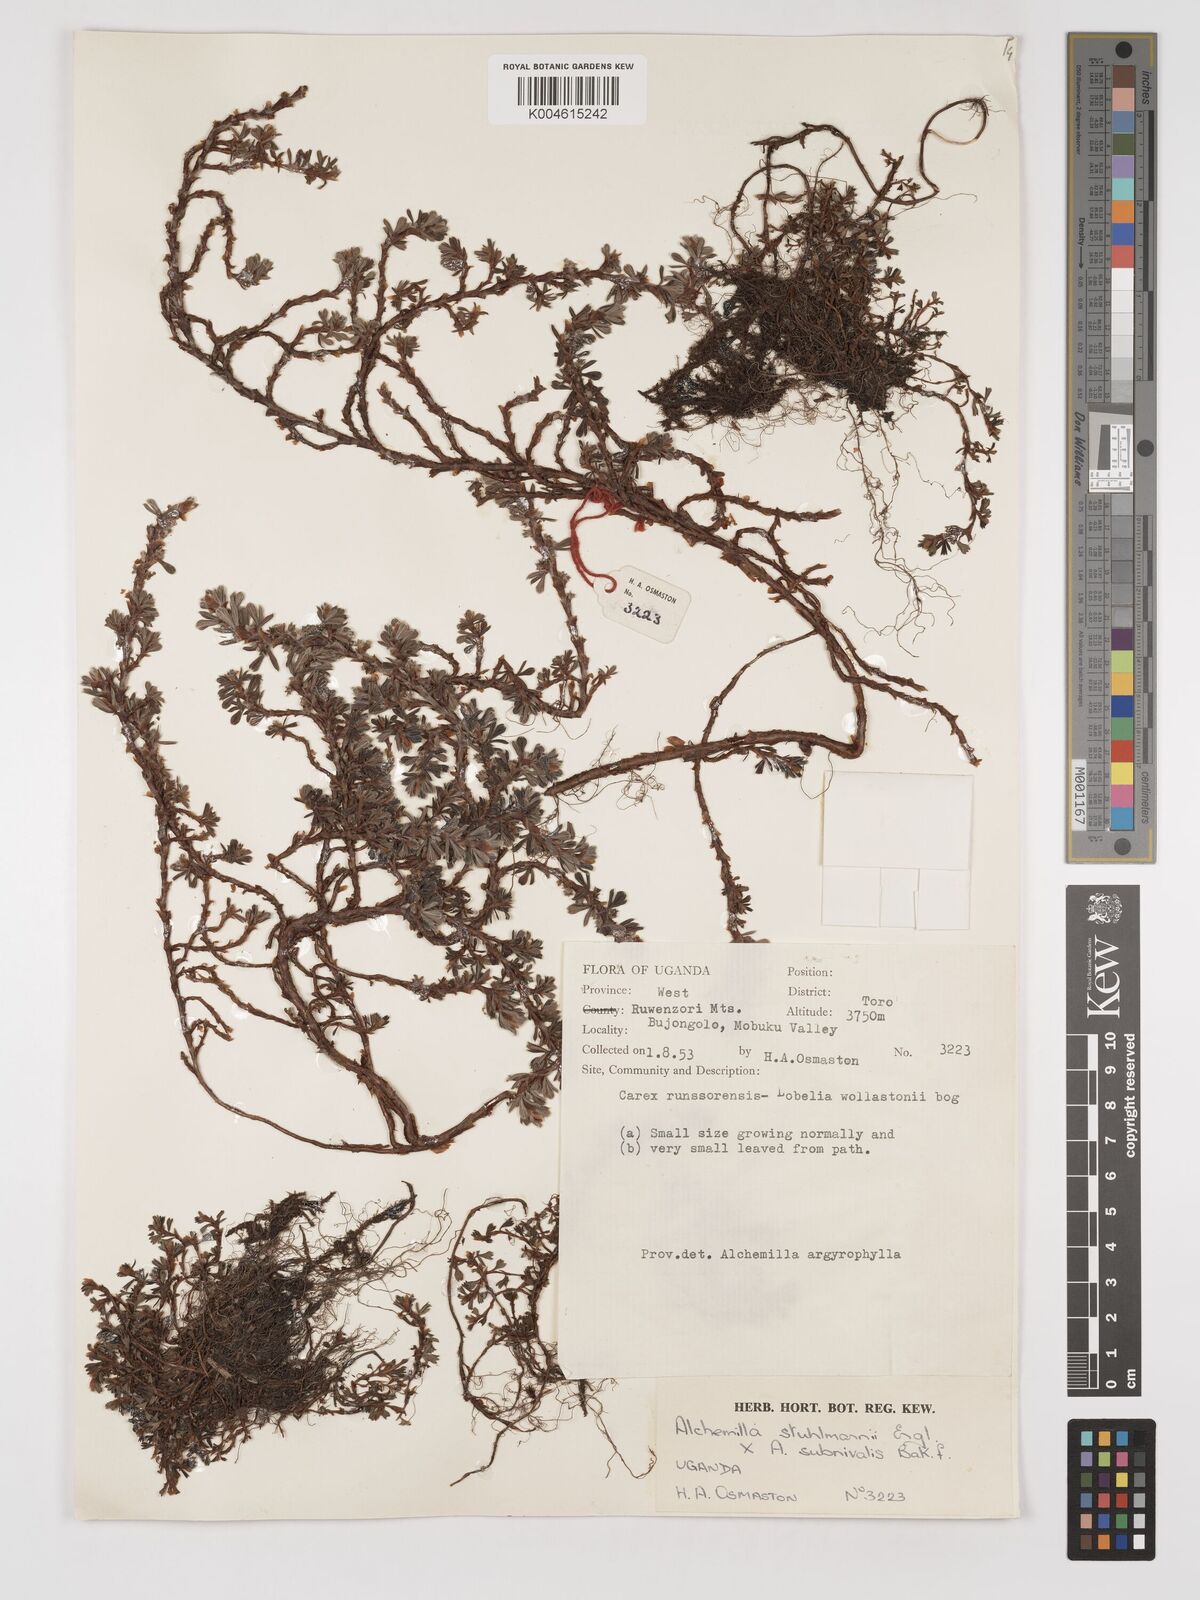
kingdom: Plantae
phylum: Tracheophyta
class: Magnoliopsida
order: Rosales
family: Rosaceae
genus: Alchemilla
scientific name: Alchemilla stuhlmannii
